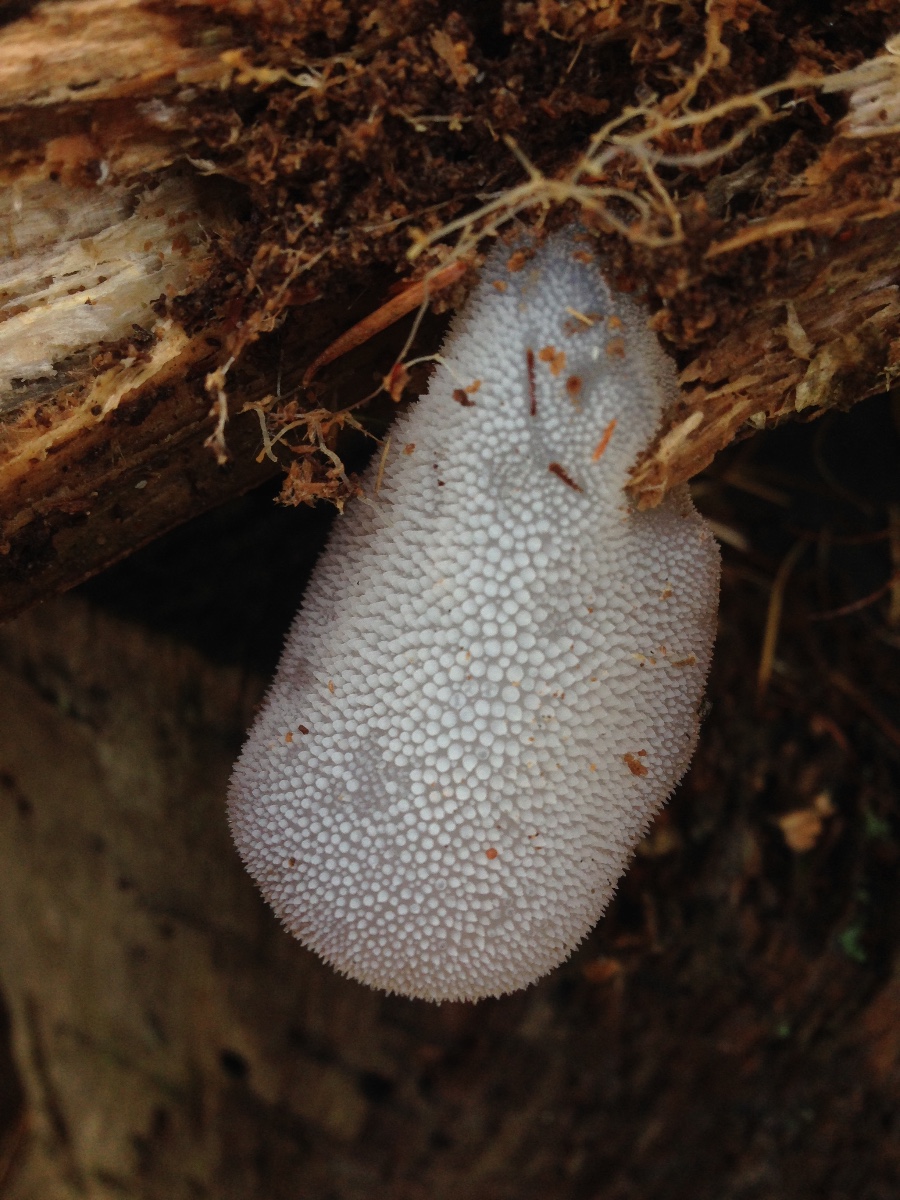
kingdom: Fungi
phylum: Basidiomycota
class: Agaricomycetes
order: Auriculariales
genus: Pseudohydnum
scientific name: Pseudohydnum gelatinosum
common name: bævretand
